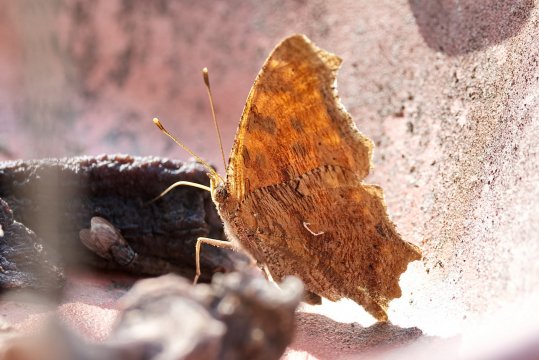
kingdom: Animalia
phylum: Arthropoda
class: Insecta
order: Lepidoptera
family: Nymphalidae
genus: Polygonia
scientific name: Polygonia comma
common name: Eastern Comma
